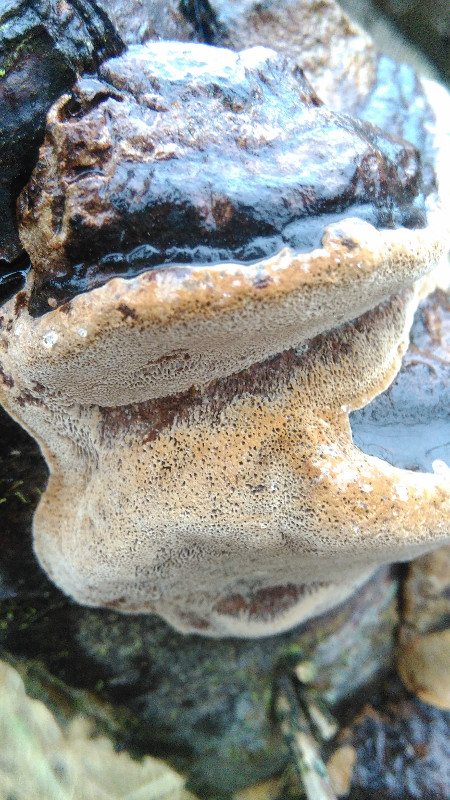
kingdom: Fungi
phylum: Basidiomycota
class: Agaricomycetes
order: Hymenochaetales
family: Hymenochaetaceae
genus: Phellinus
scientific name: Phellinus pomaceus
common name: blomme-ildporesvamp
